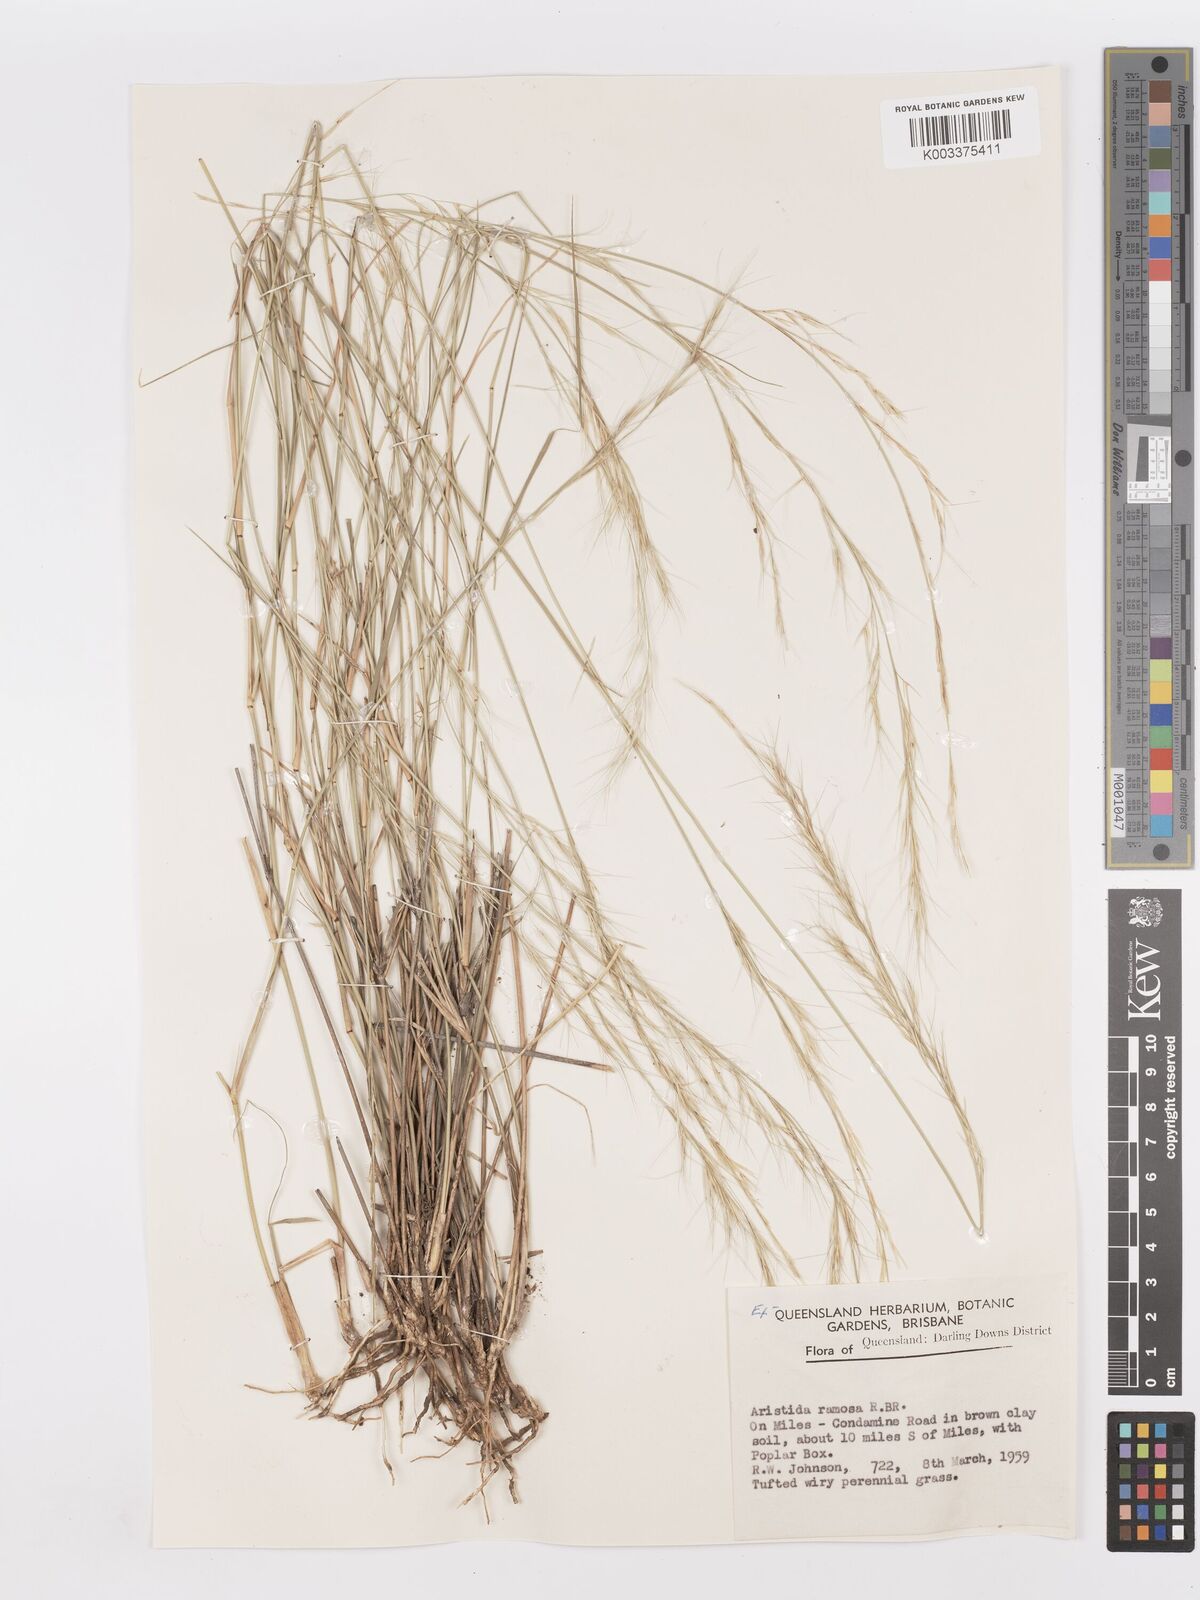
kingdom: Plantae
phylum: Tracheophyta
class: Liliopsida
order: Poales
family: Poaceae
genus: Aristida
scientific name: Aristida ramosa
